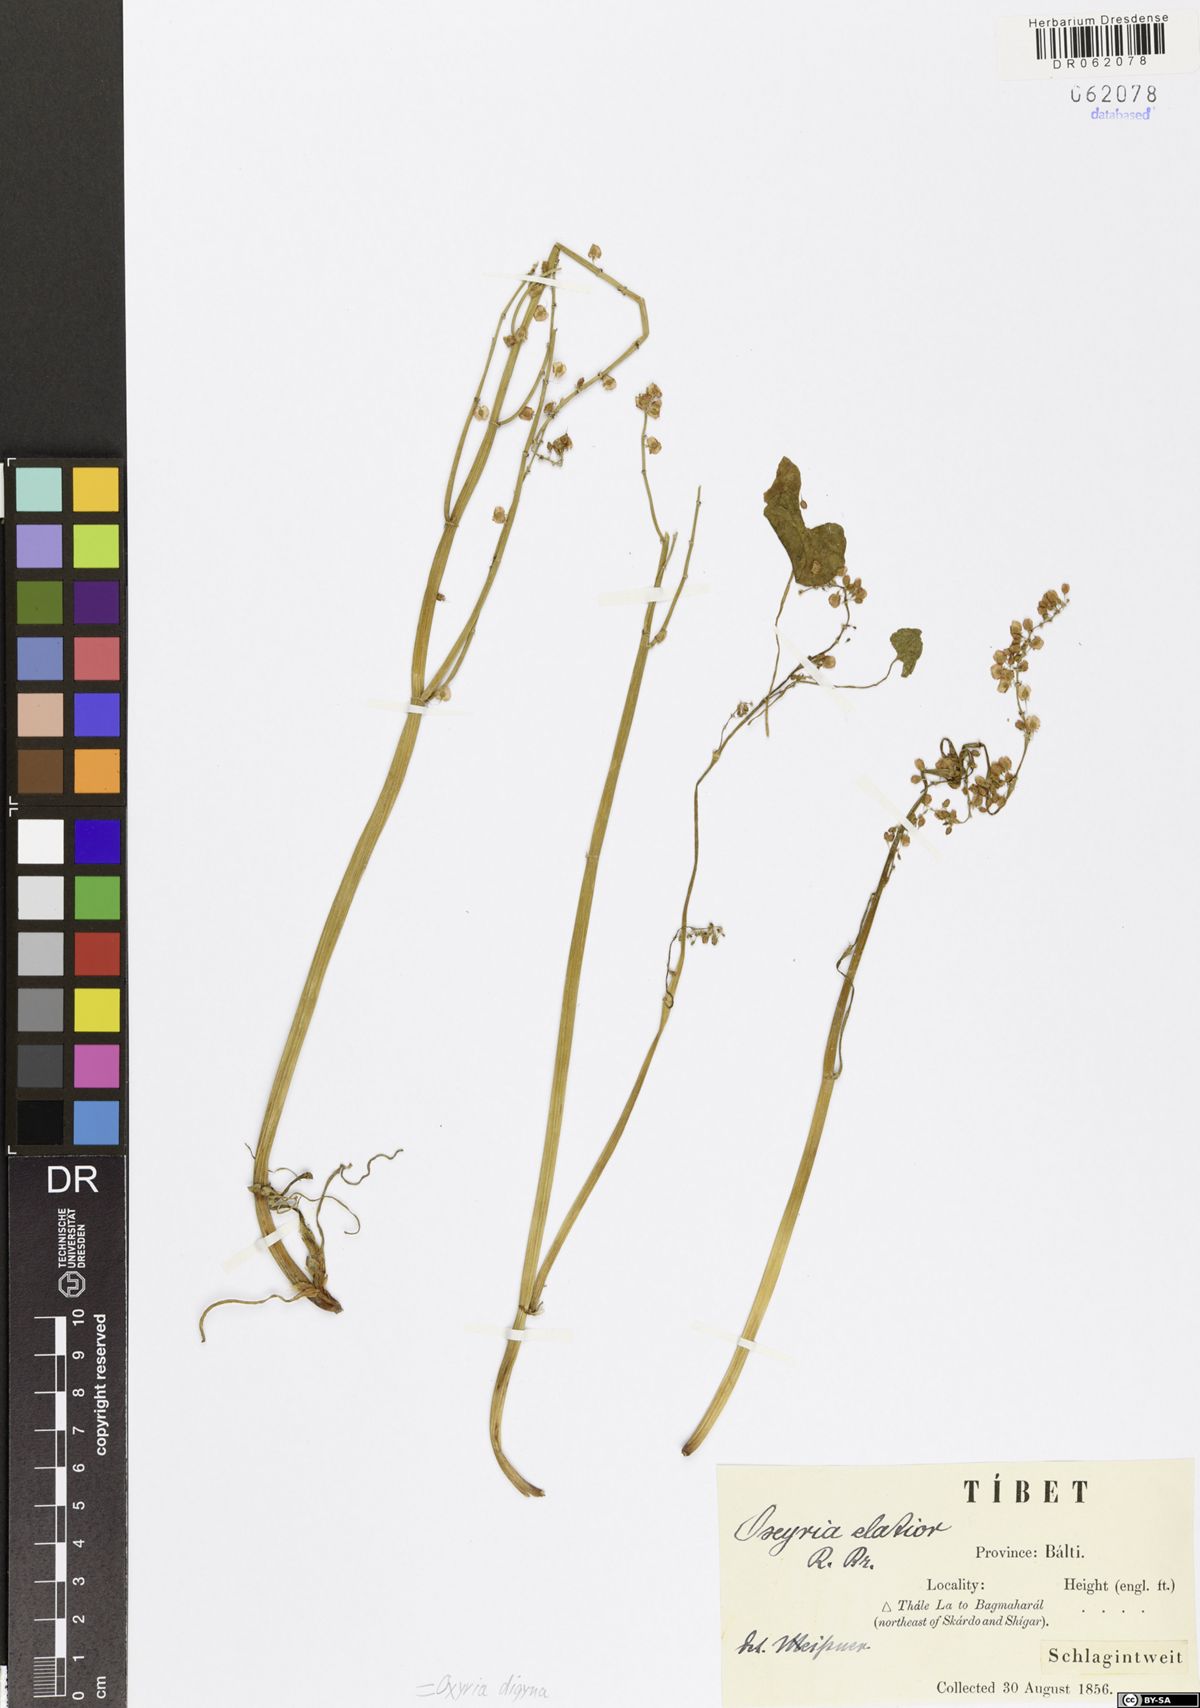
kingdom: Plantae
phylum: Tracheophyta
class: Magnoliopsida
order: Caryophyllales
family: Polygonaceae
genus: Oxyria
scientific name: Oxyria digyna
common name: Alpine mountain-sorrel
